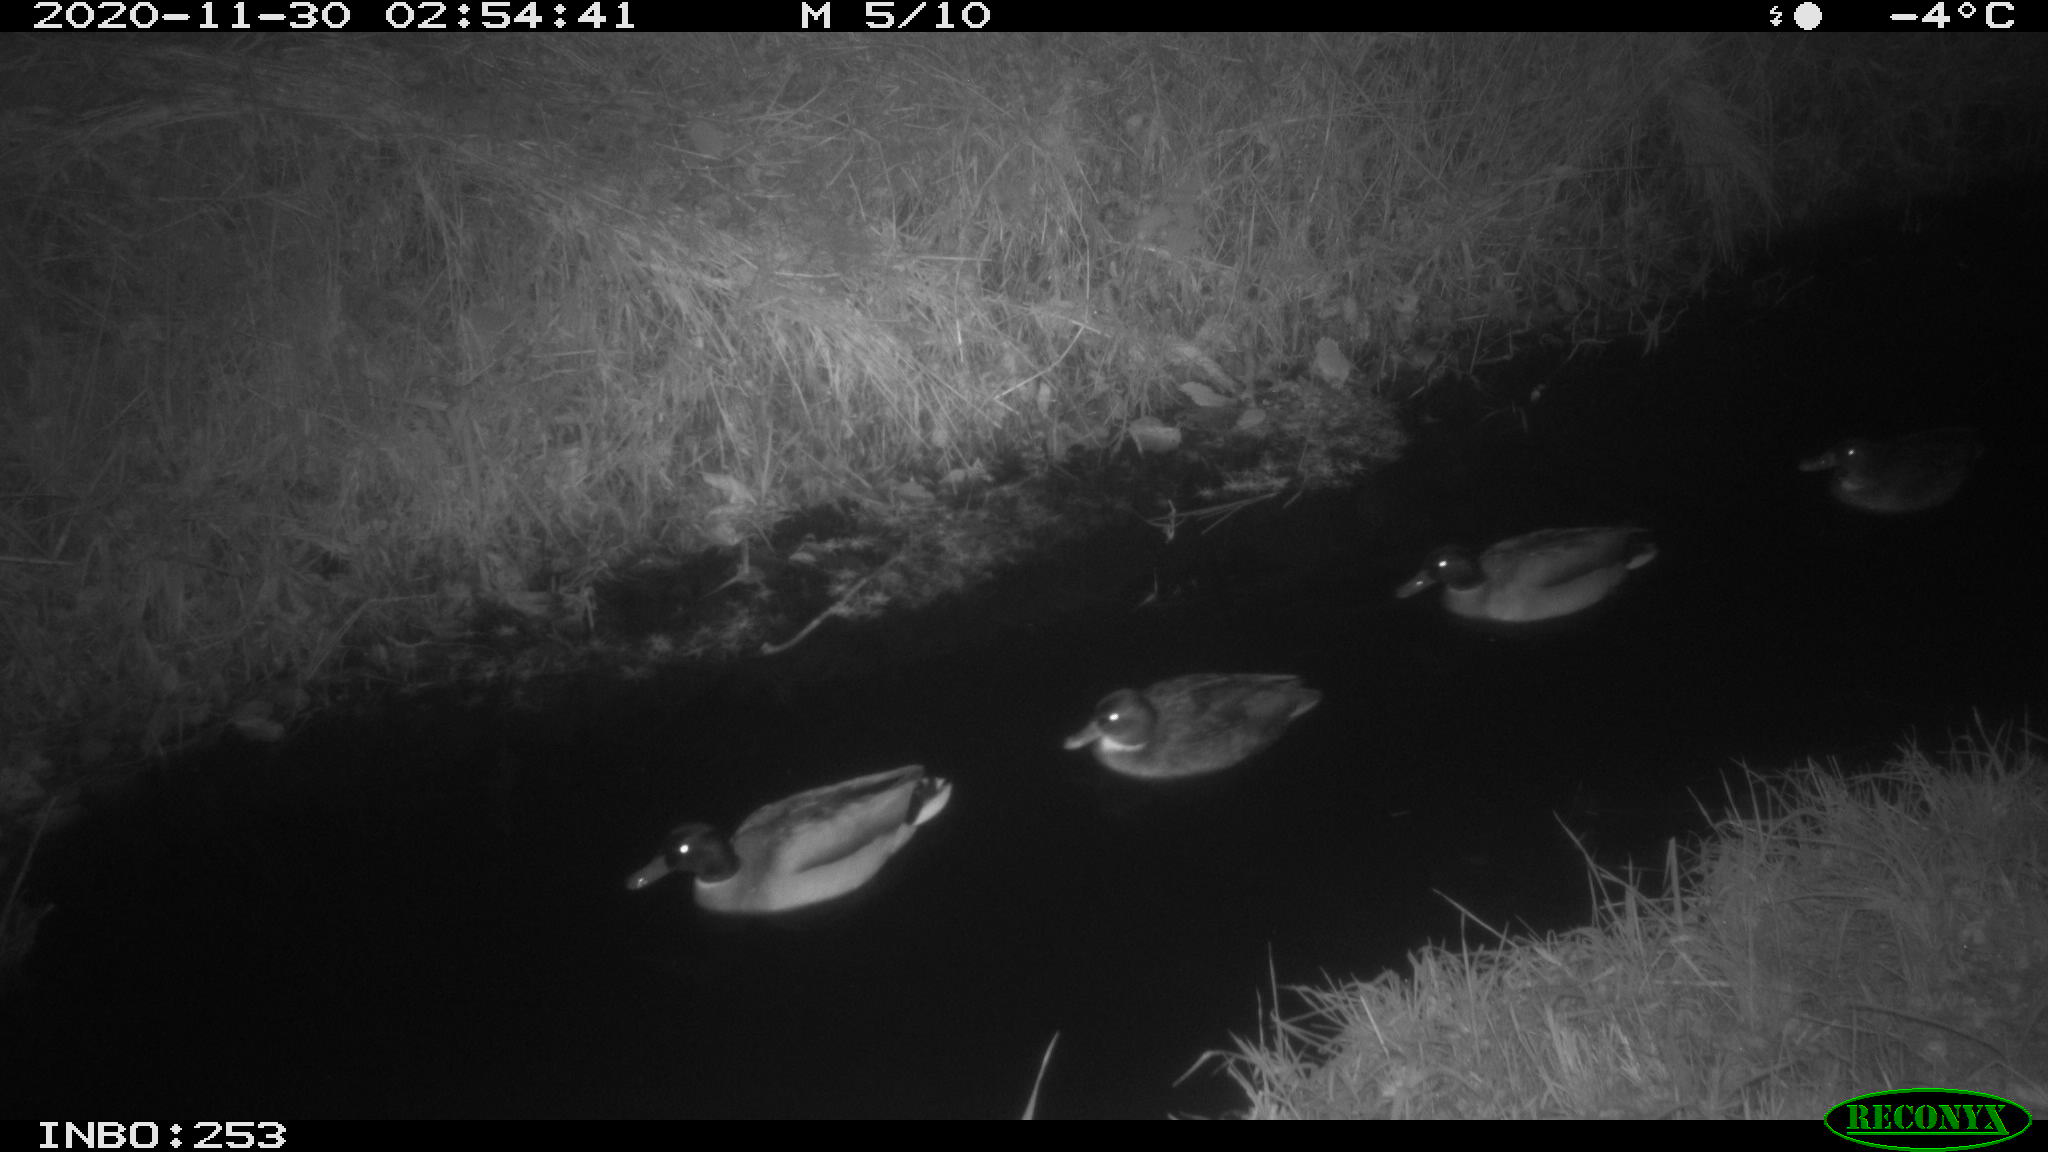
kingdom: Animalia
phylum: Chordata
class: Aves
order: Anseriformes
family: Anatidae
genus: Anas
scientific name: Anas platyrhynchos
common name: Mallard
